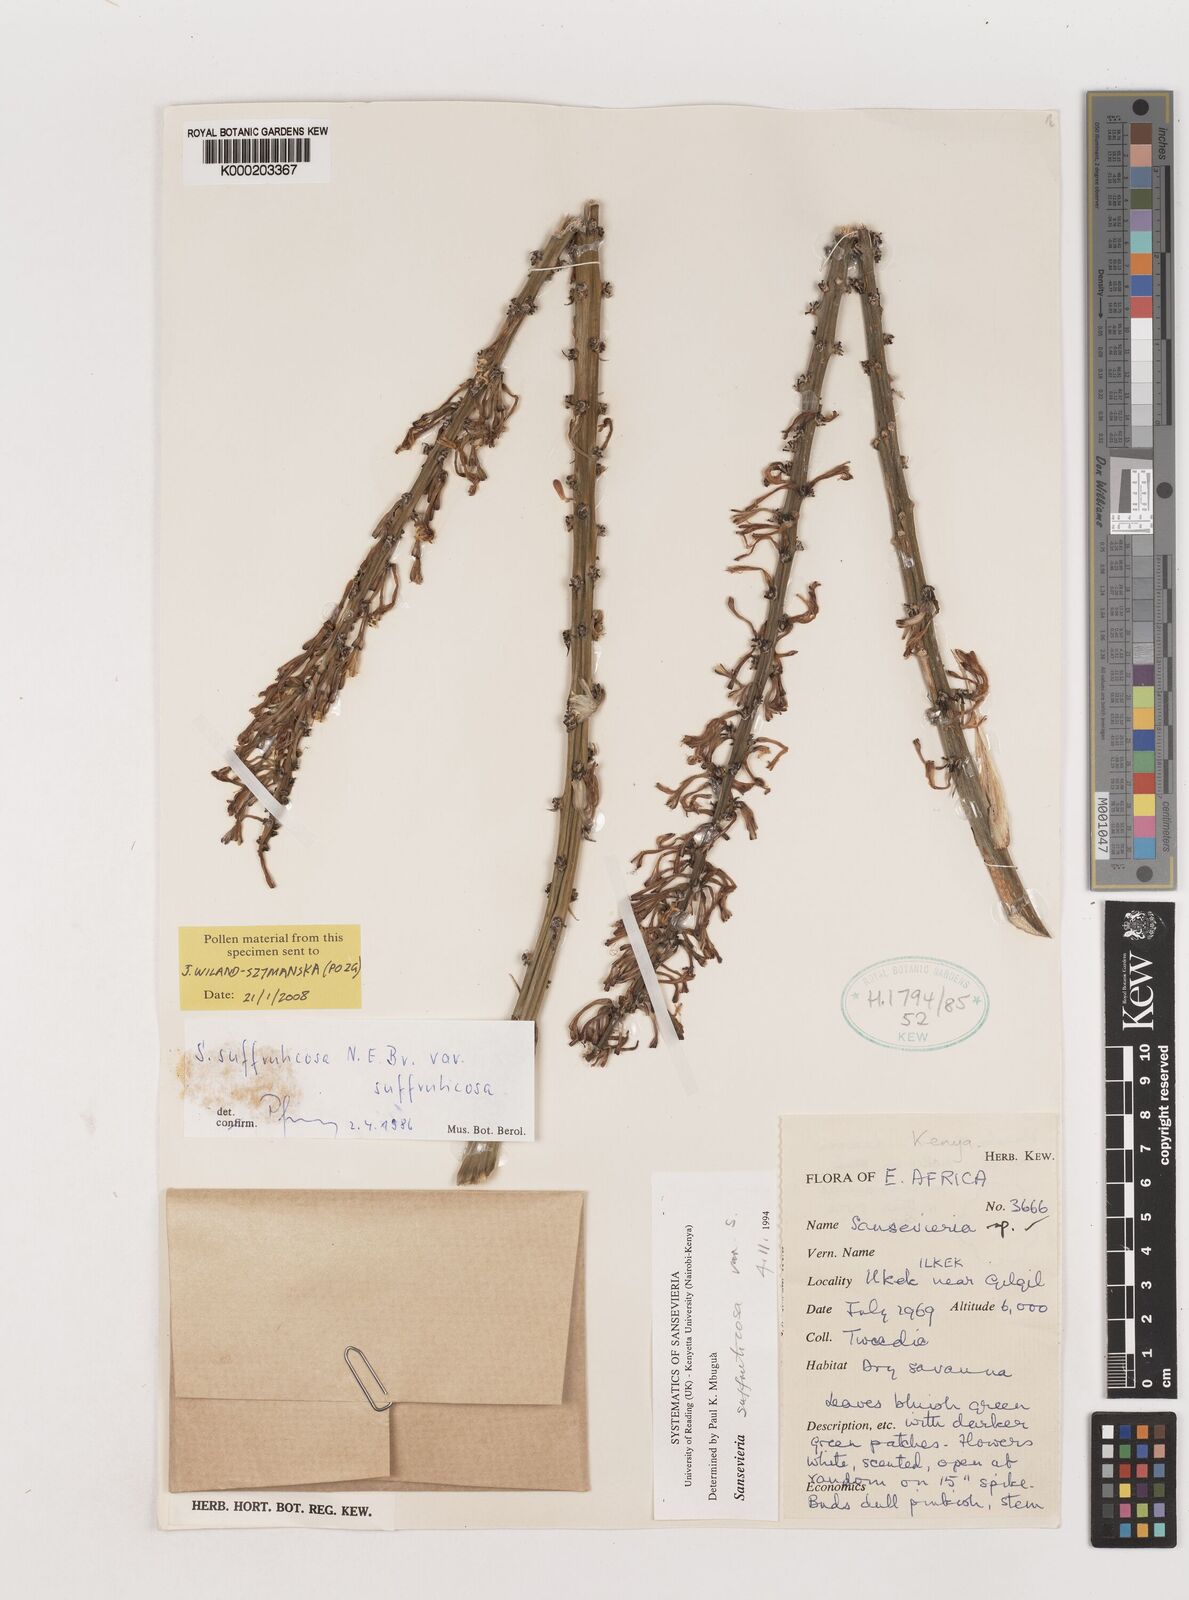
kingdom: Plantae
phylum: Tracheophyta
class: Liliopsida
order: Asparagales
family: Asparagaceae
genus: Dracaena
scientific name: Dracaena suffruticosa
